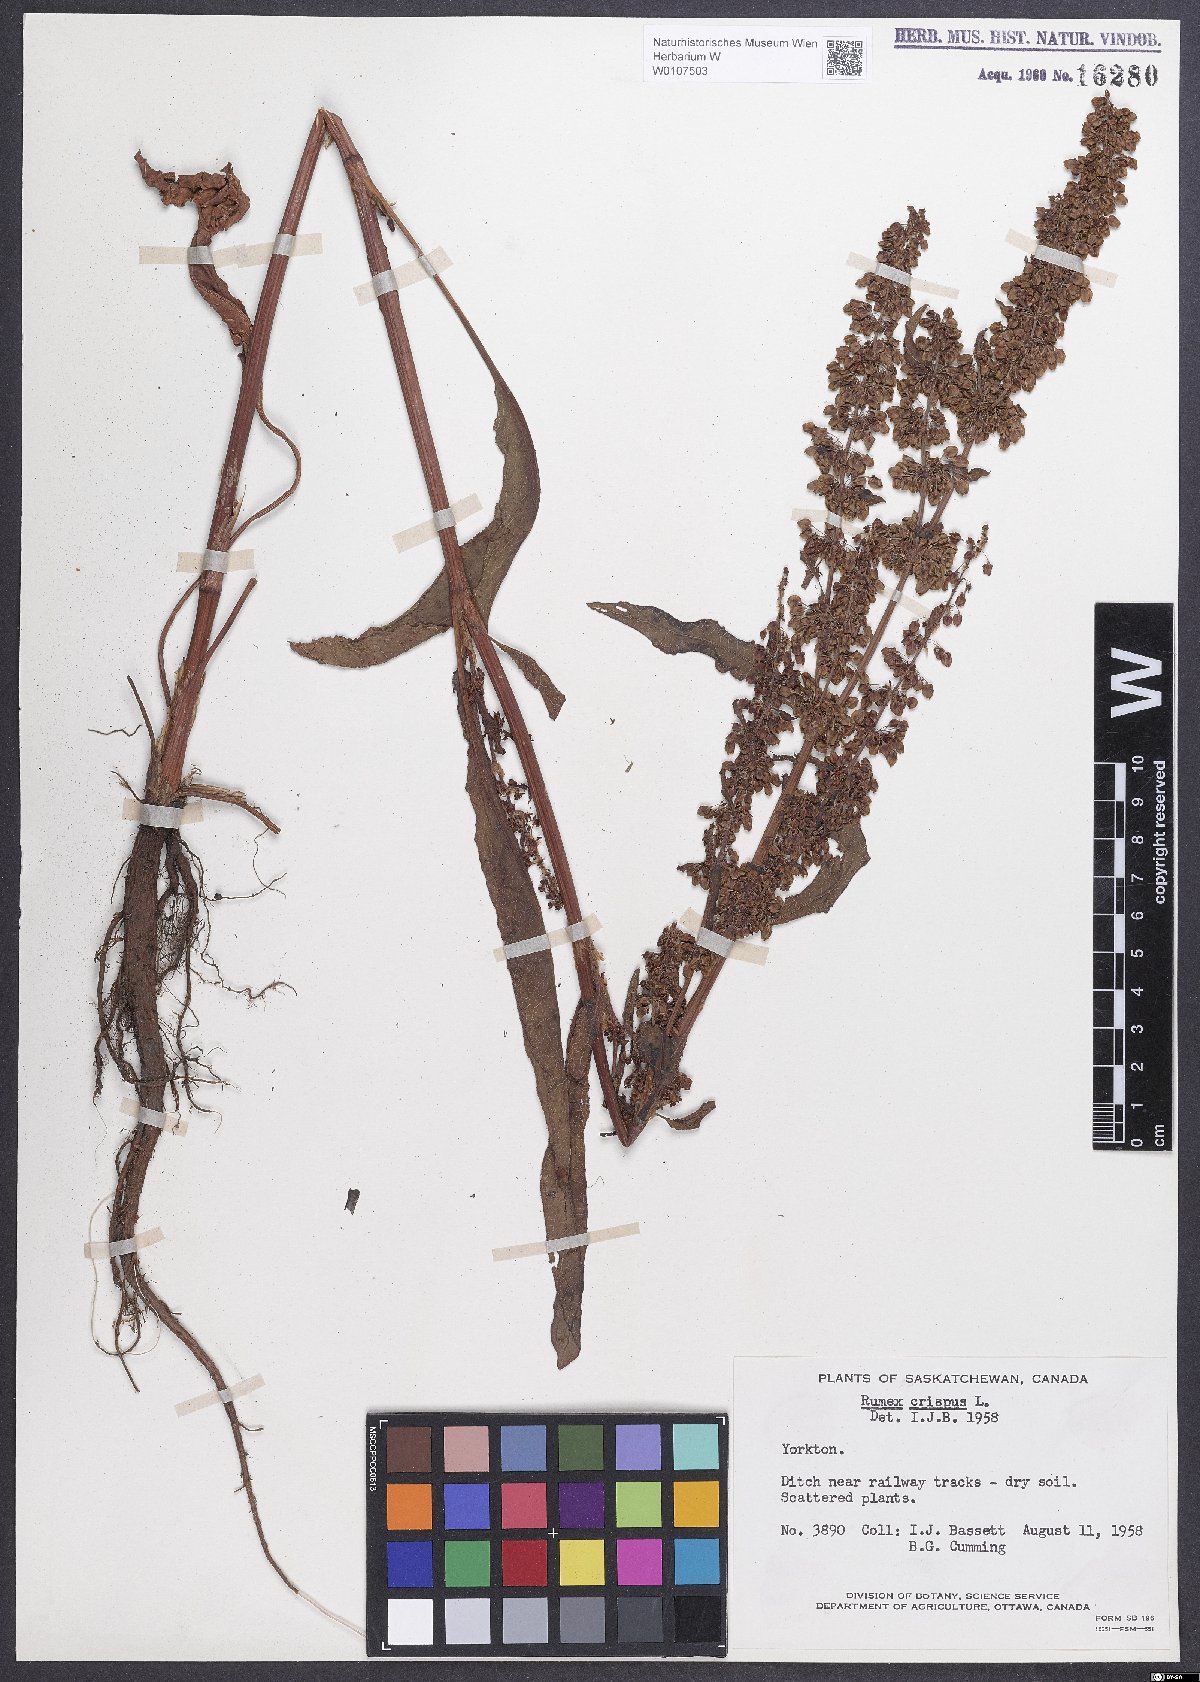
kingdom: Plantae
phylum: Tracheophyta
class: Magnoliopsida
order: Caryophyllales
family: Polygonaceae
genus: Rumex
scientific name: Rumex crispus
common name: Curled dock
